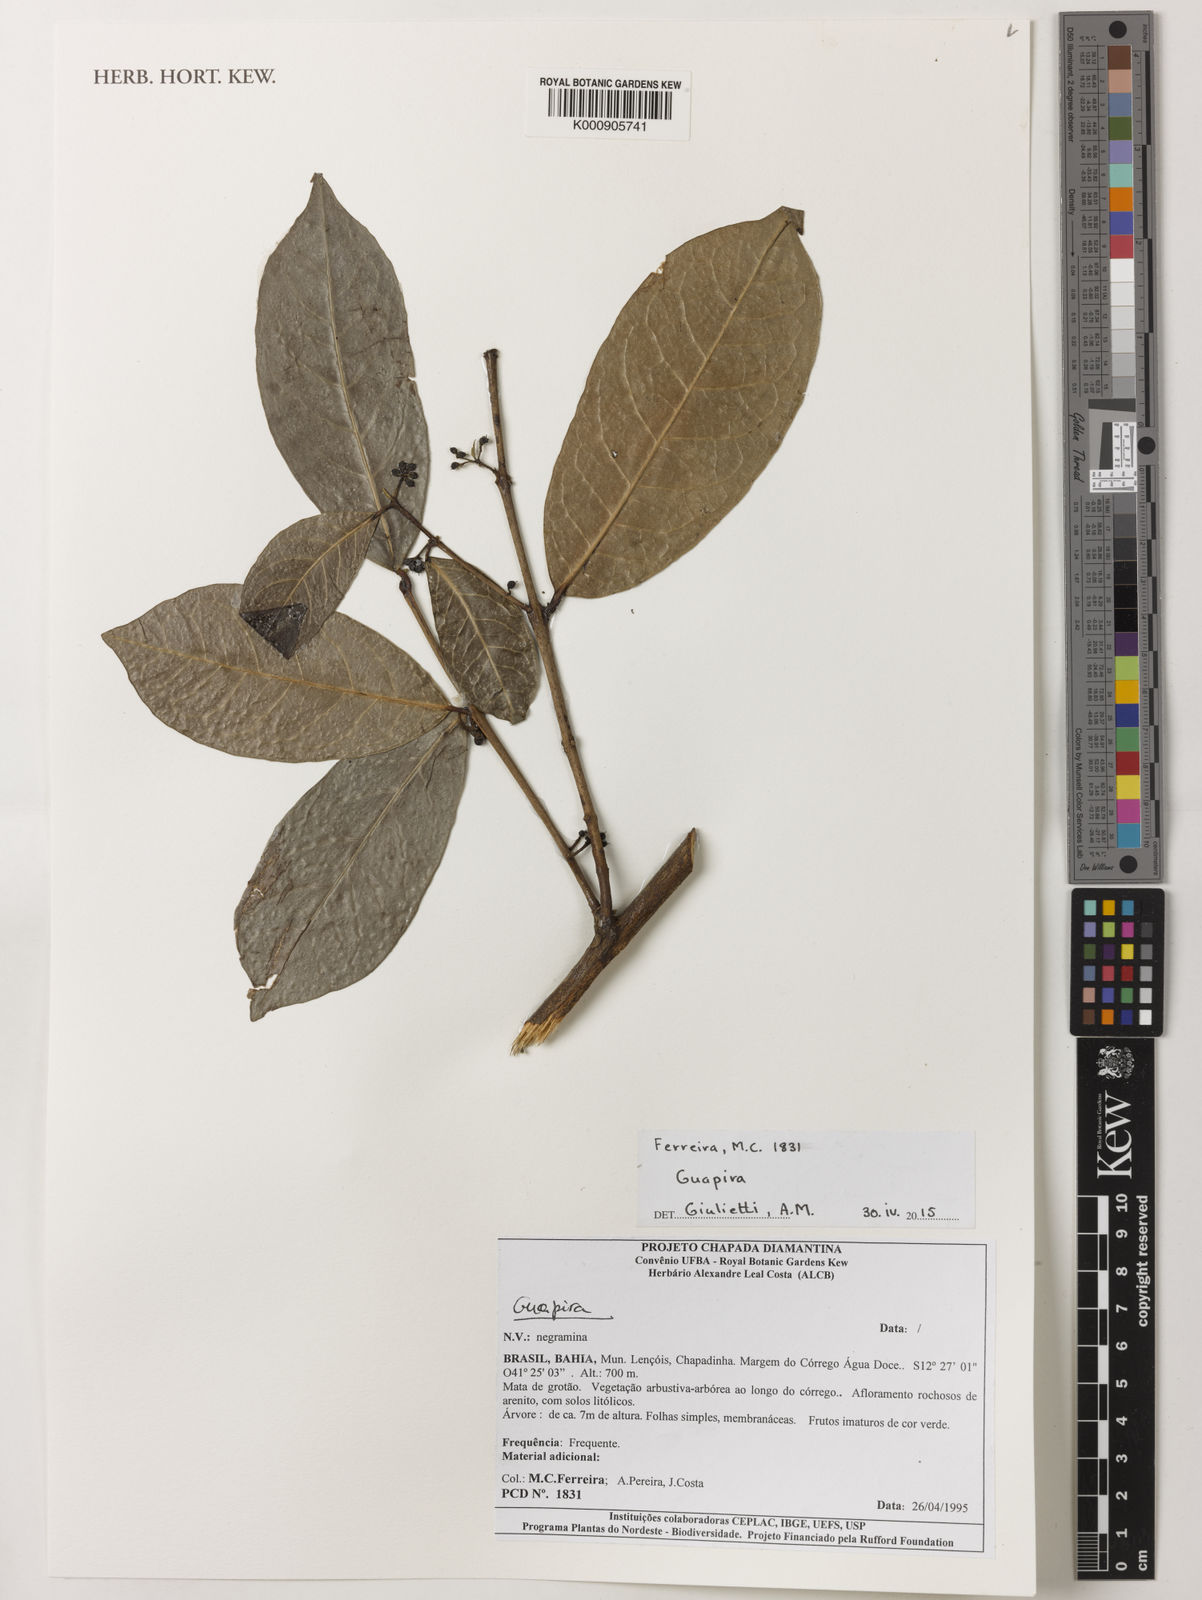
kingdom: Plantae
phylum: Tracheophyta
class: Magnoliopsida
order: Caryophyllales
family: Nyctaginaceae
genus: Guapira
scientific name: Guapira
